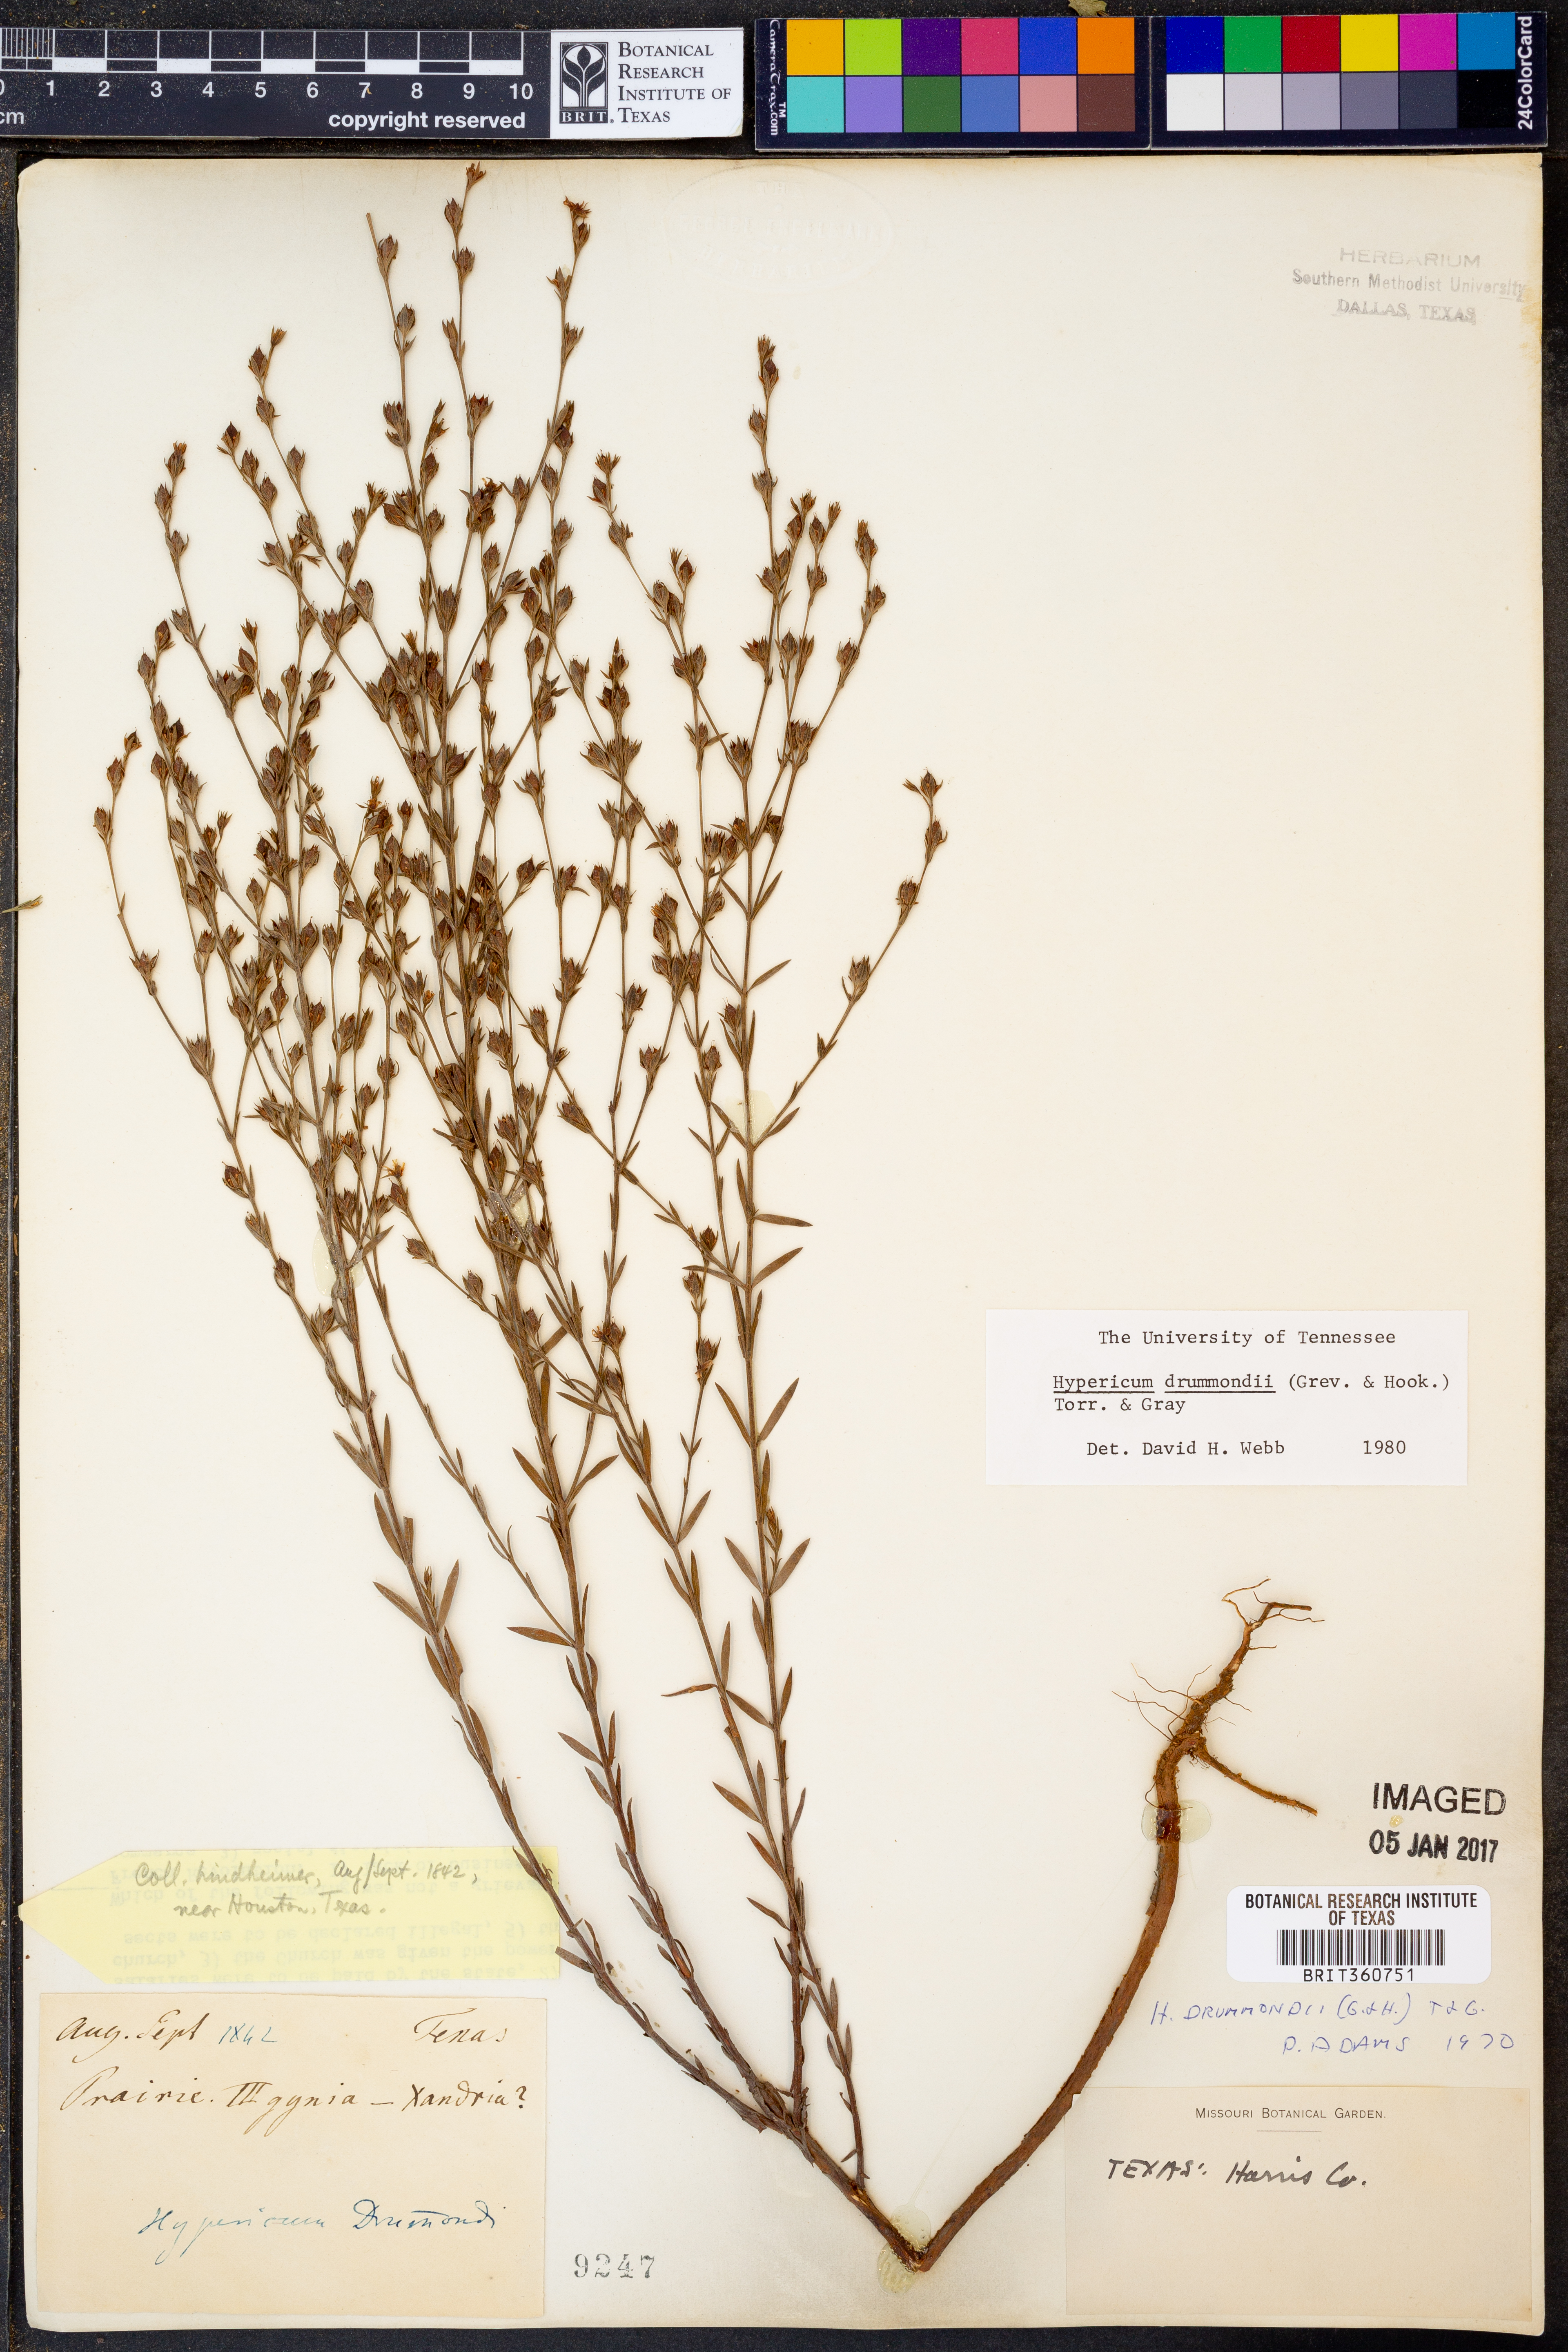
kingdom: Plantae
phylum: Tracheophyta
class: Magnoliopsida
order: Malpighiales
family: Hypericaceae
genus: Hypericum
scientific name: Hypericum drummondii
